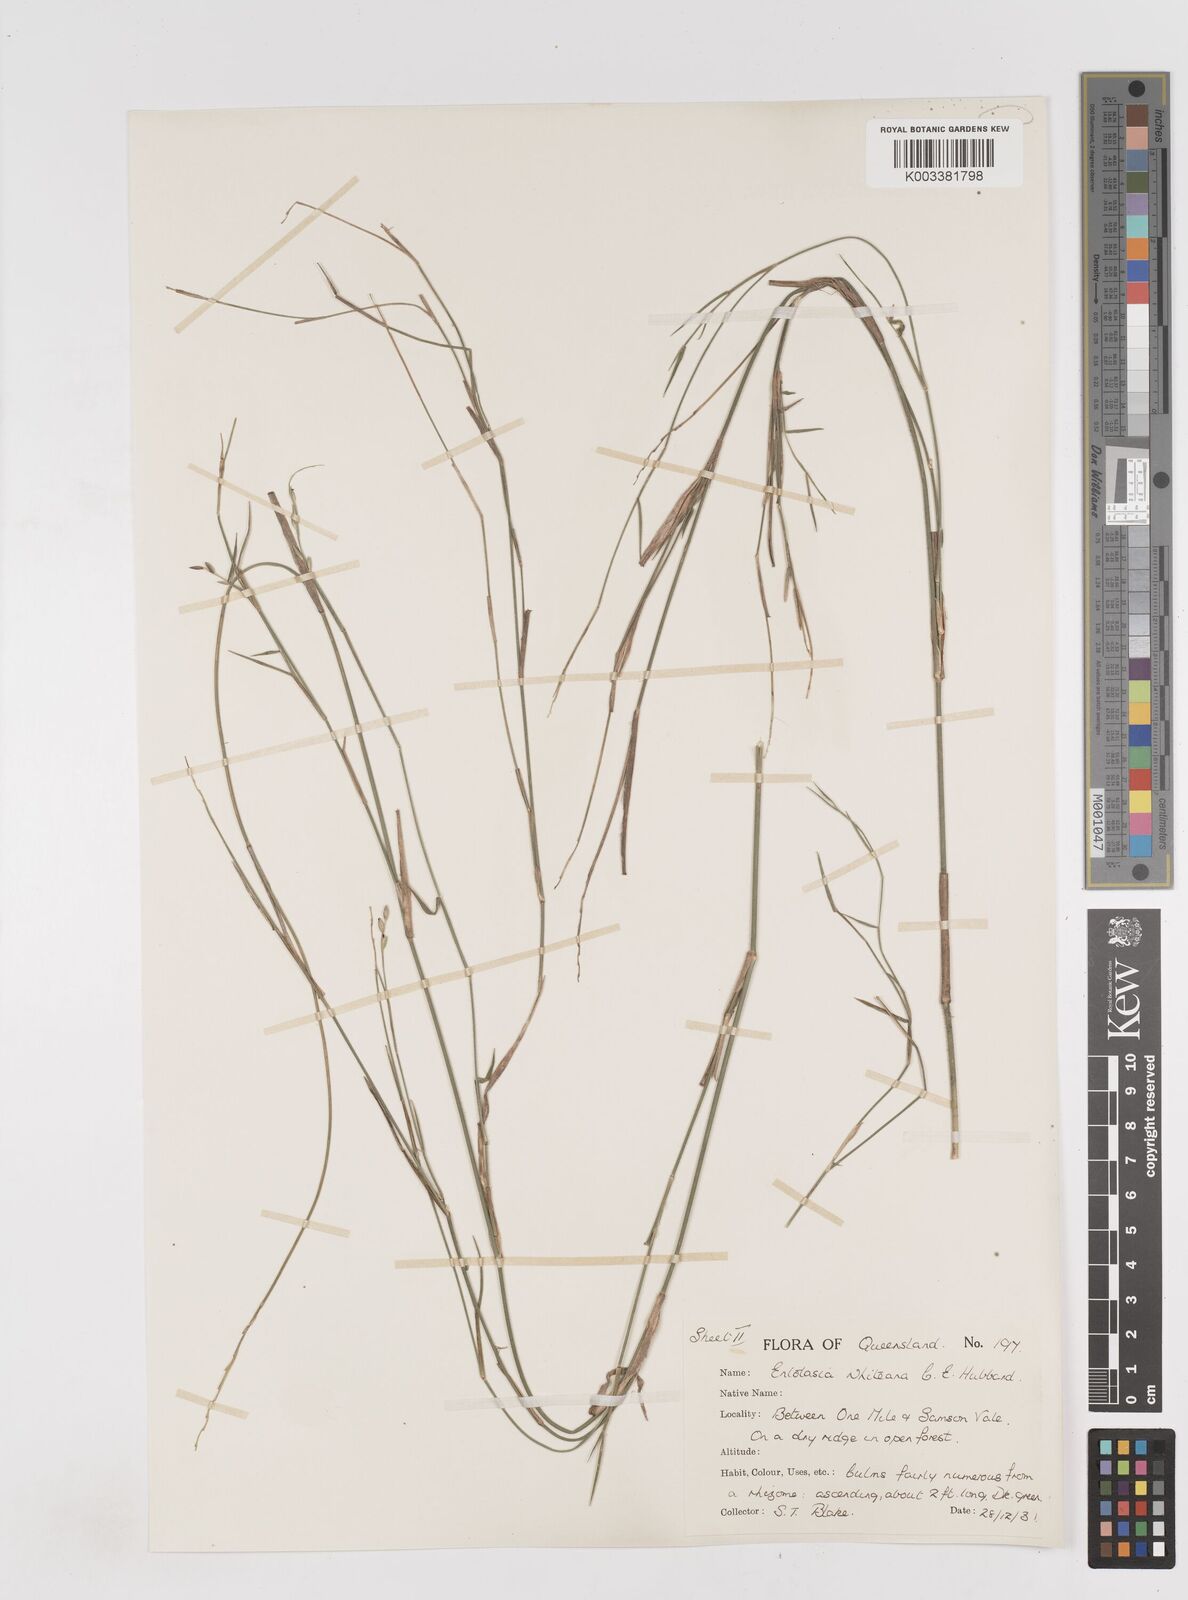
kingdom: Plantae
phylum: Tracheophyta
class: Liliopsida
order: Poales
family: Poaceae
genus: Entolasia
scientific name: Entolasia whiteana
